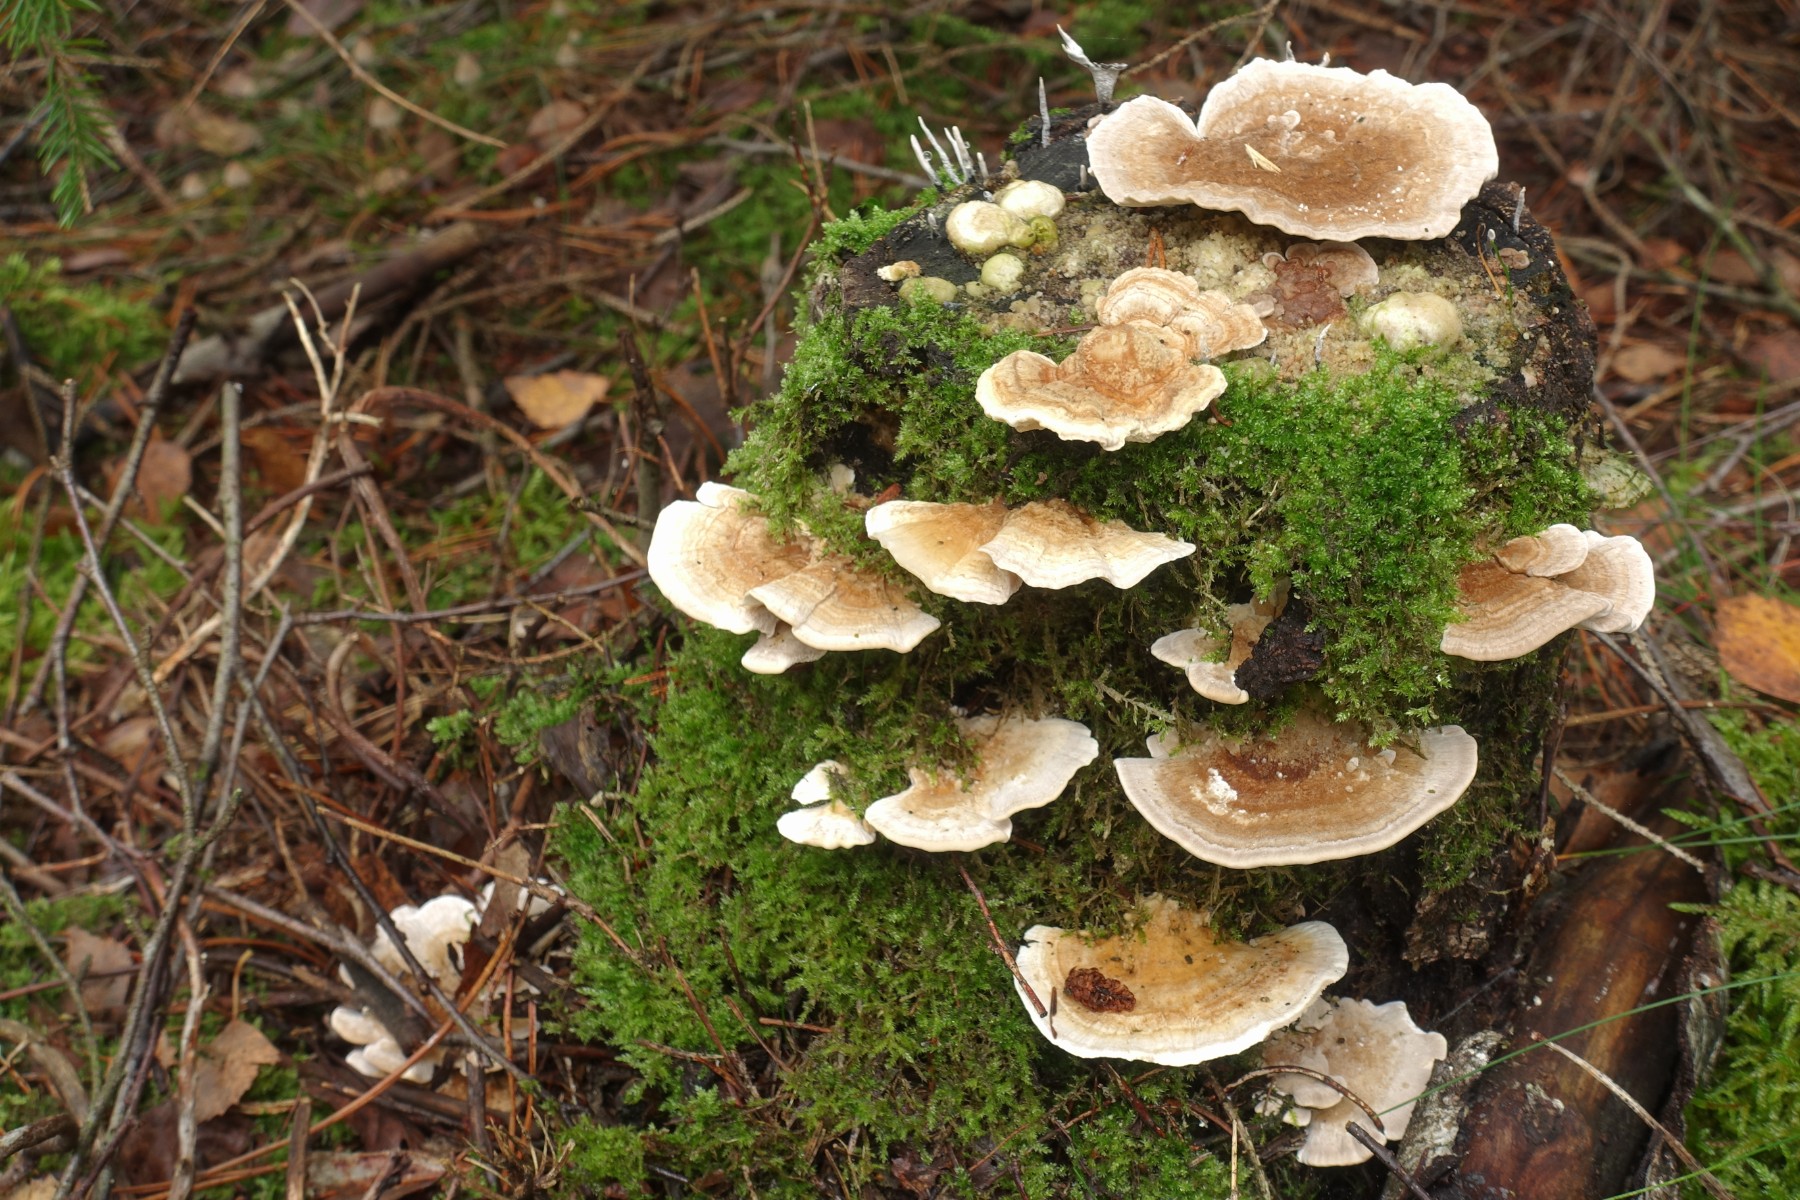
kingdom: Fungi
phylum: Basidiomycota
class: Agaricomycetes
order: Polyporales
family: Polyporaceae
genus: Trametes
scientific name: Trametes ochracea
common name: bæltet læderporesvamp
